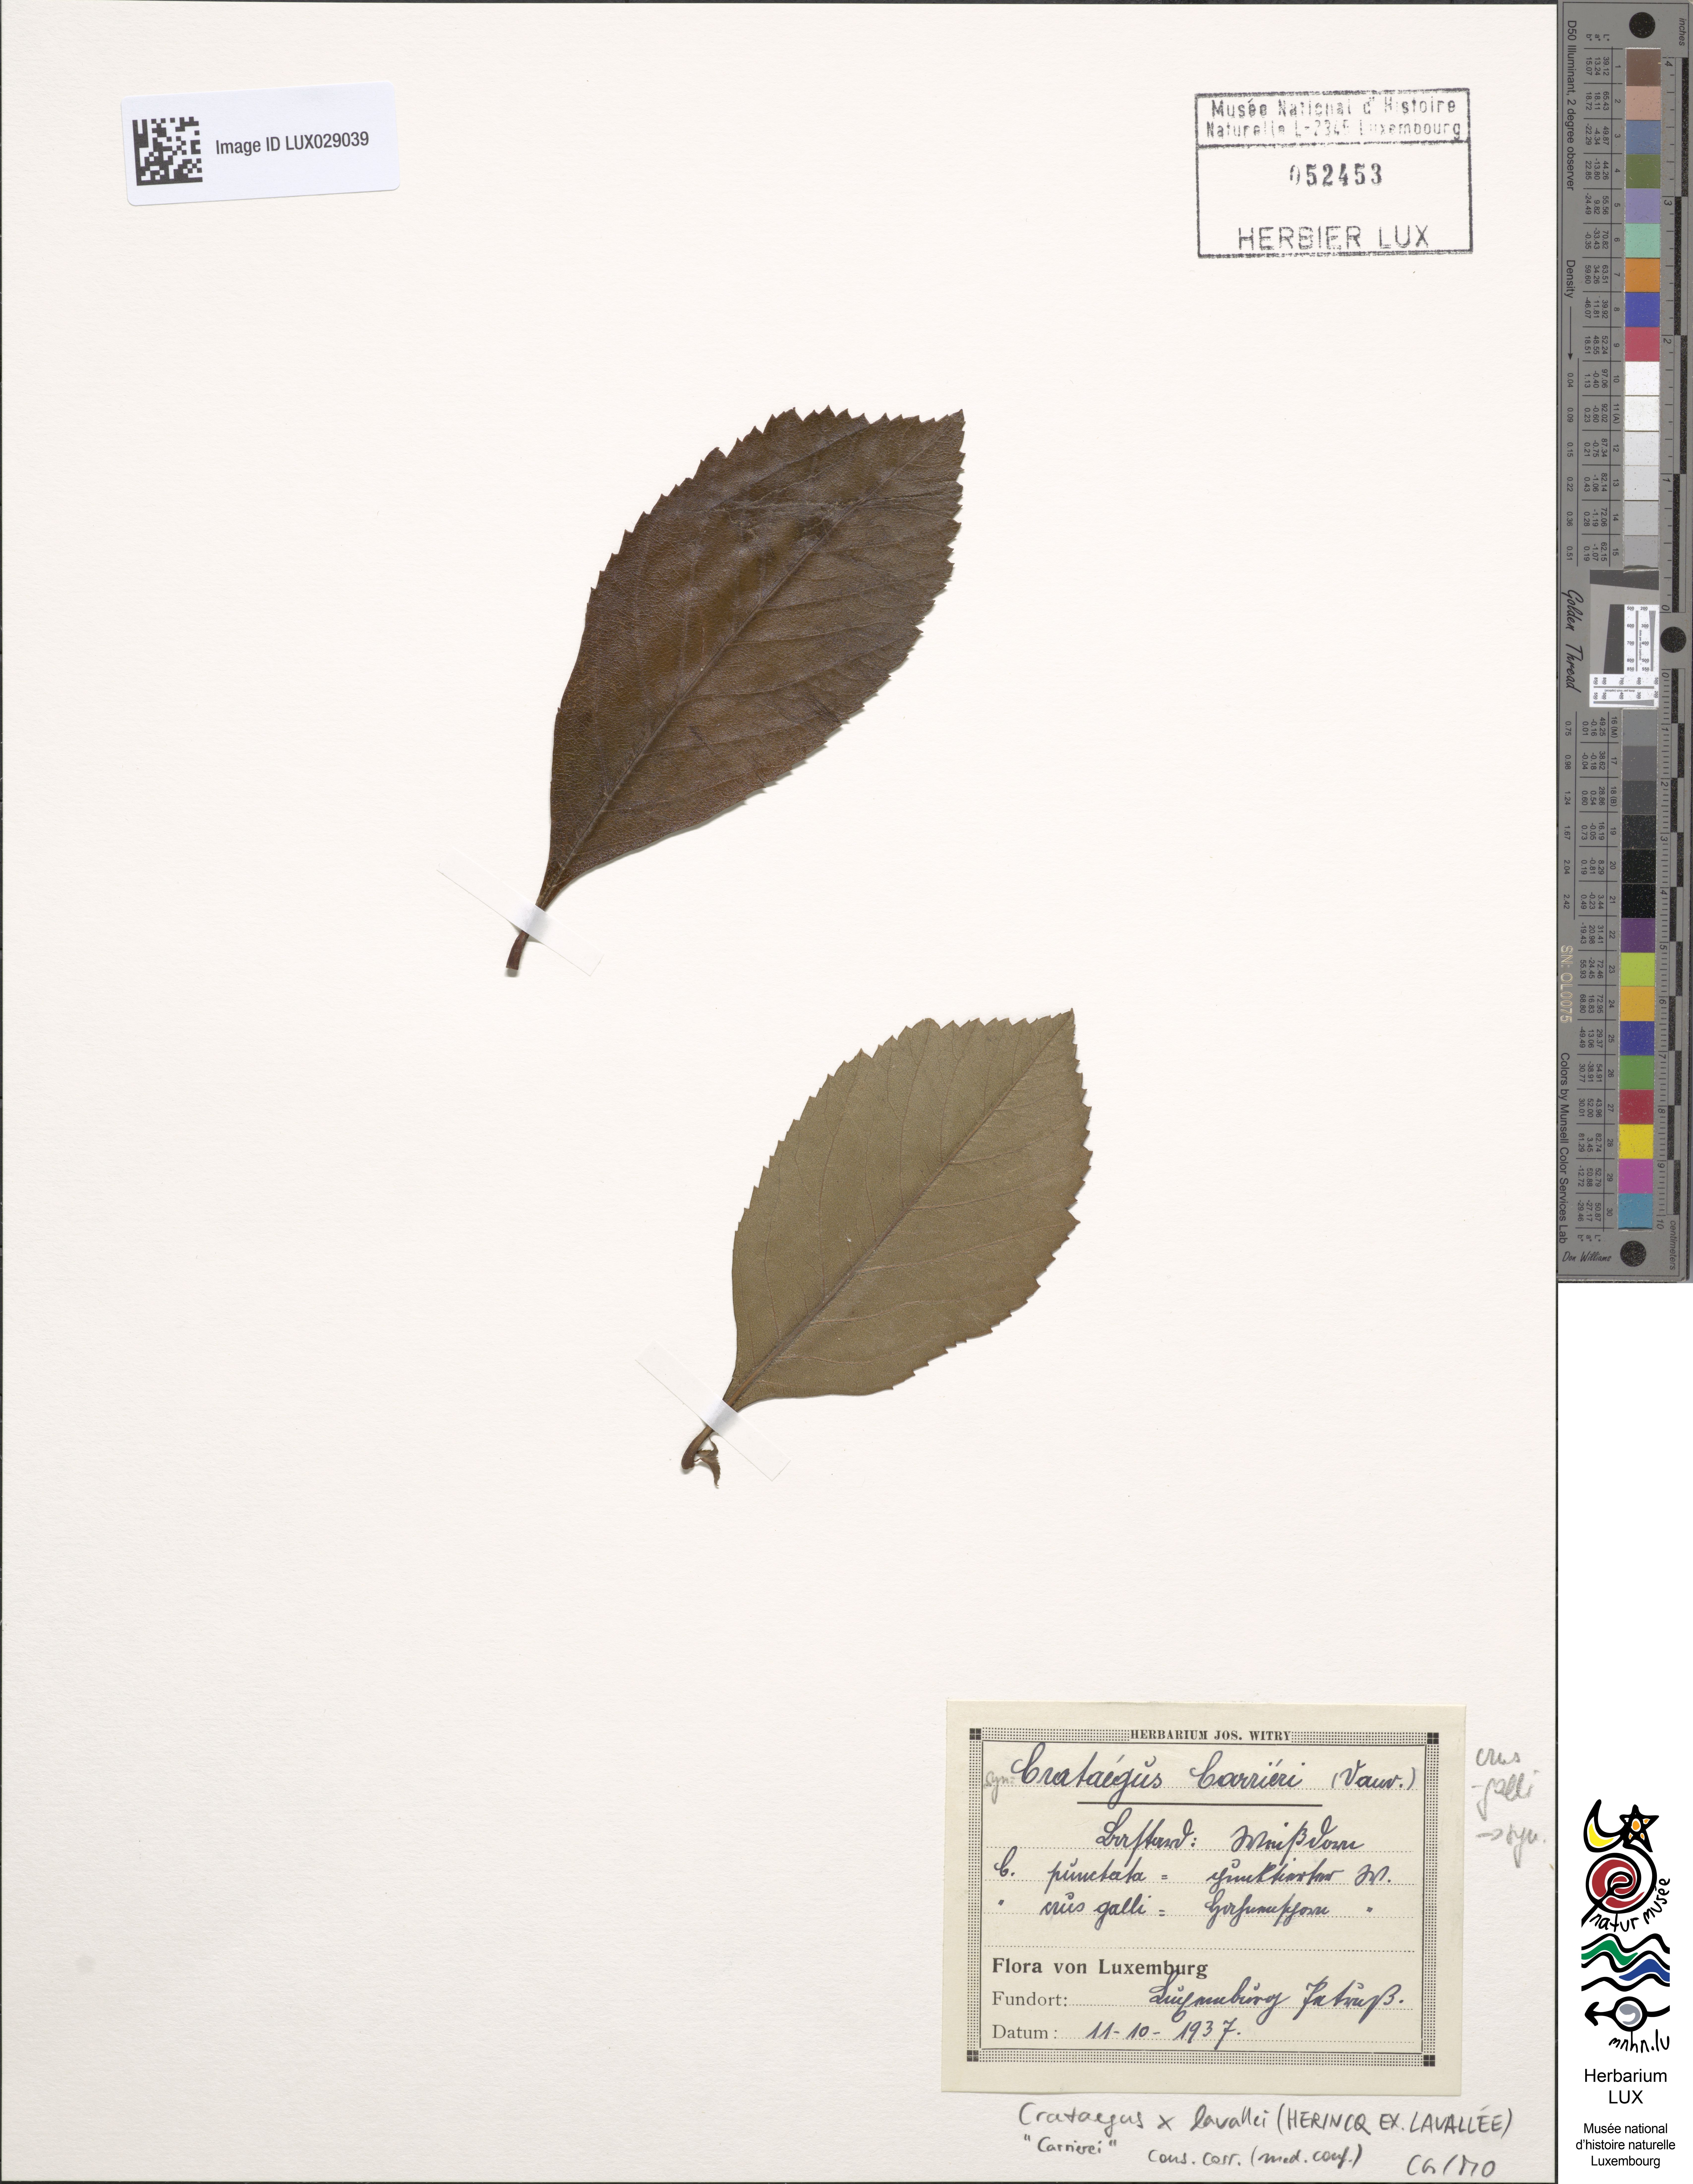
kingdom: Plantae
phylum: Tracheophyta
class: Magnoliopsida
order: Rosales
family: Rosaceae
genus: Crataegus
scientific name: Crataegus crus-galli
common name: Cockspurthorn
